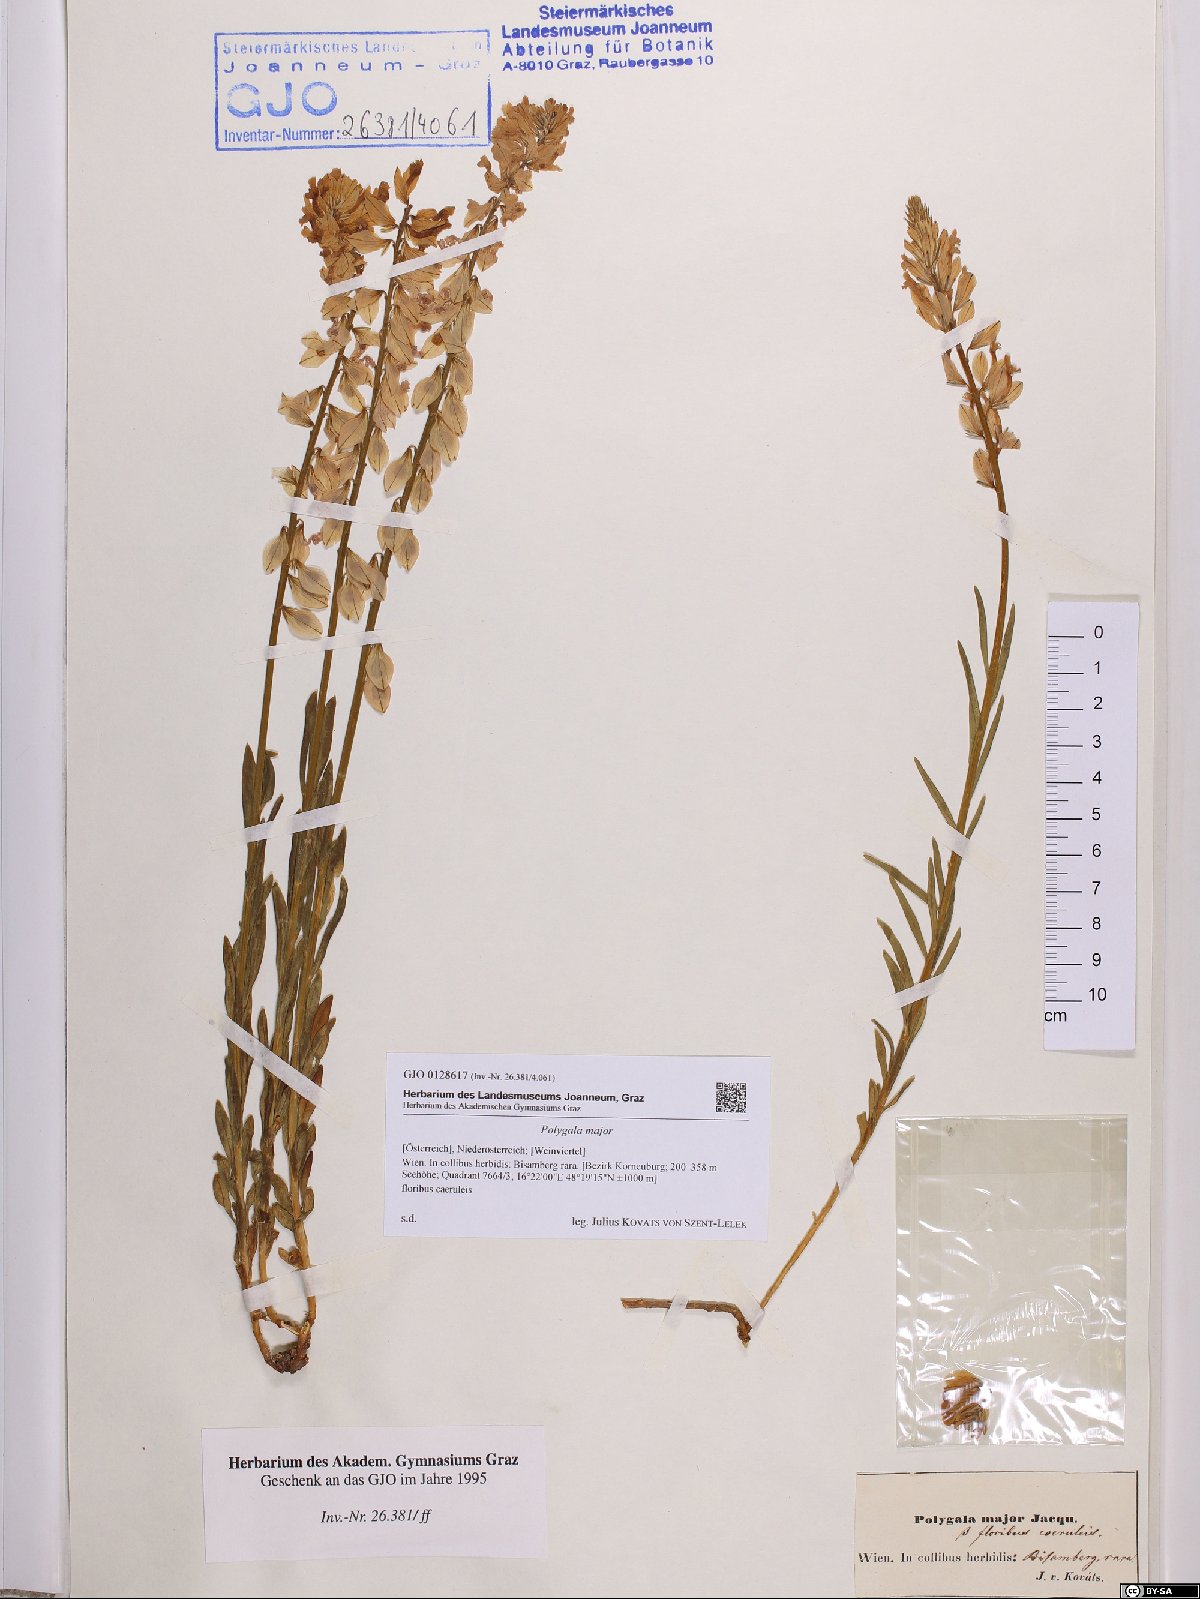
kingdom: Plantae
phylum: Tracheophyta
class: Magnoliopsida
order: Fabales
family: Polygalaceae
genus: Polygala
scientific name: Polygala major
